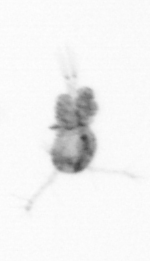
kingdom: Animalia
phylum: Arthropoda
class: Copepoda
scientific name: Copepoda
